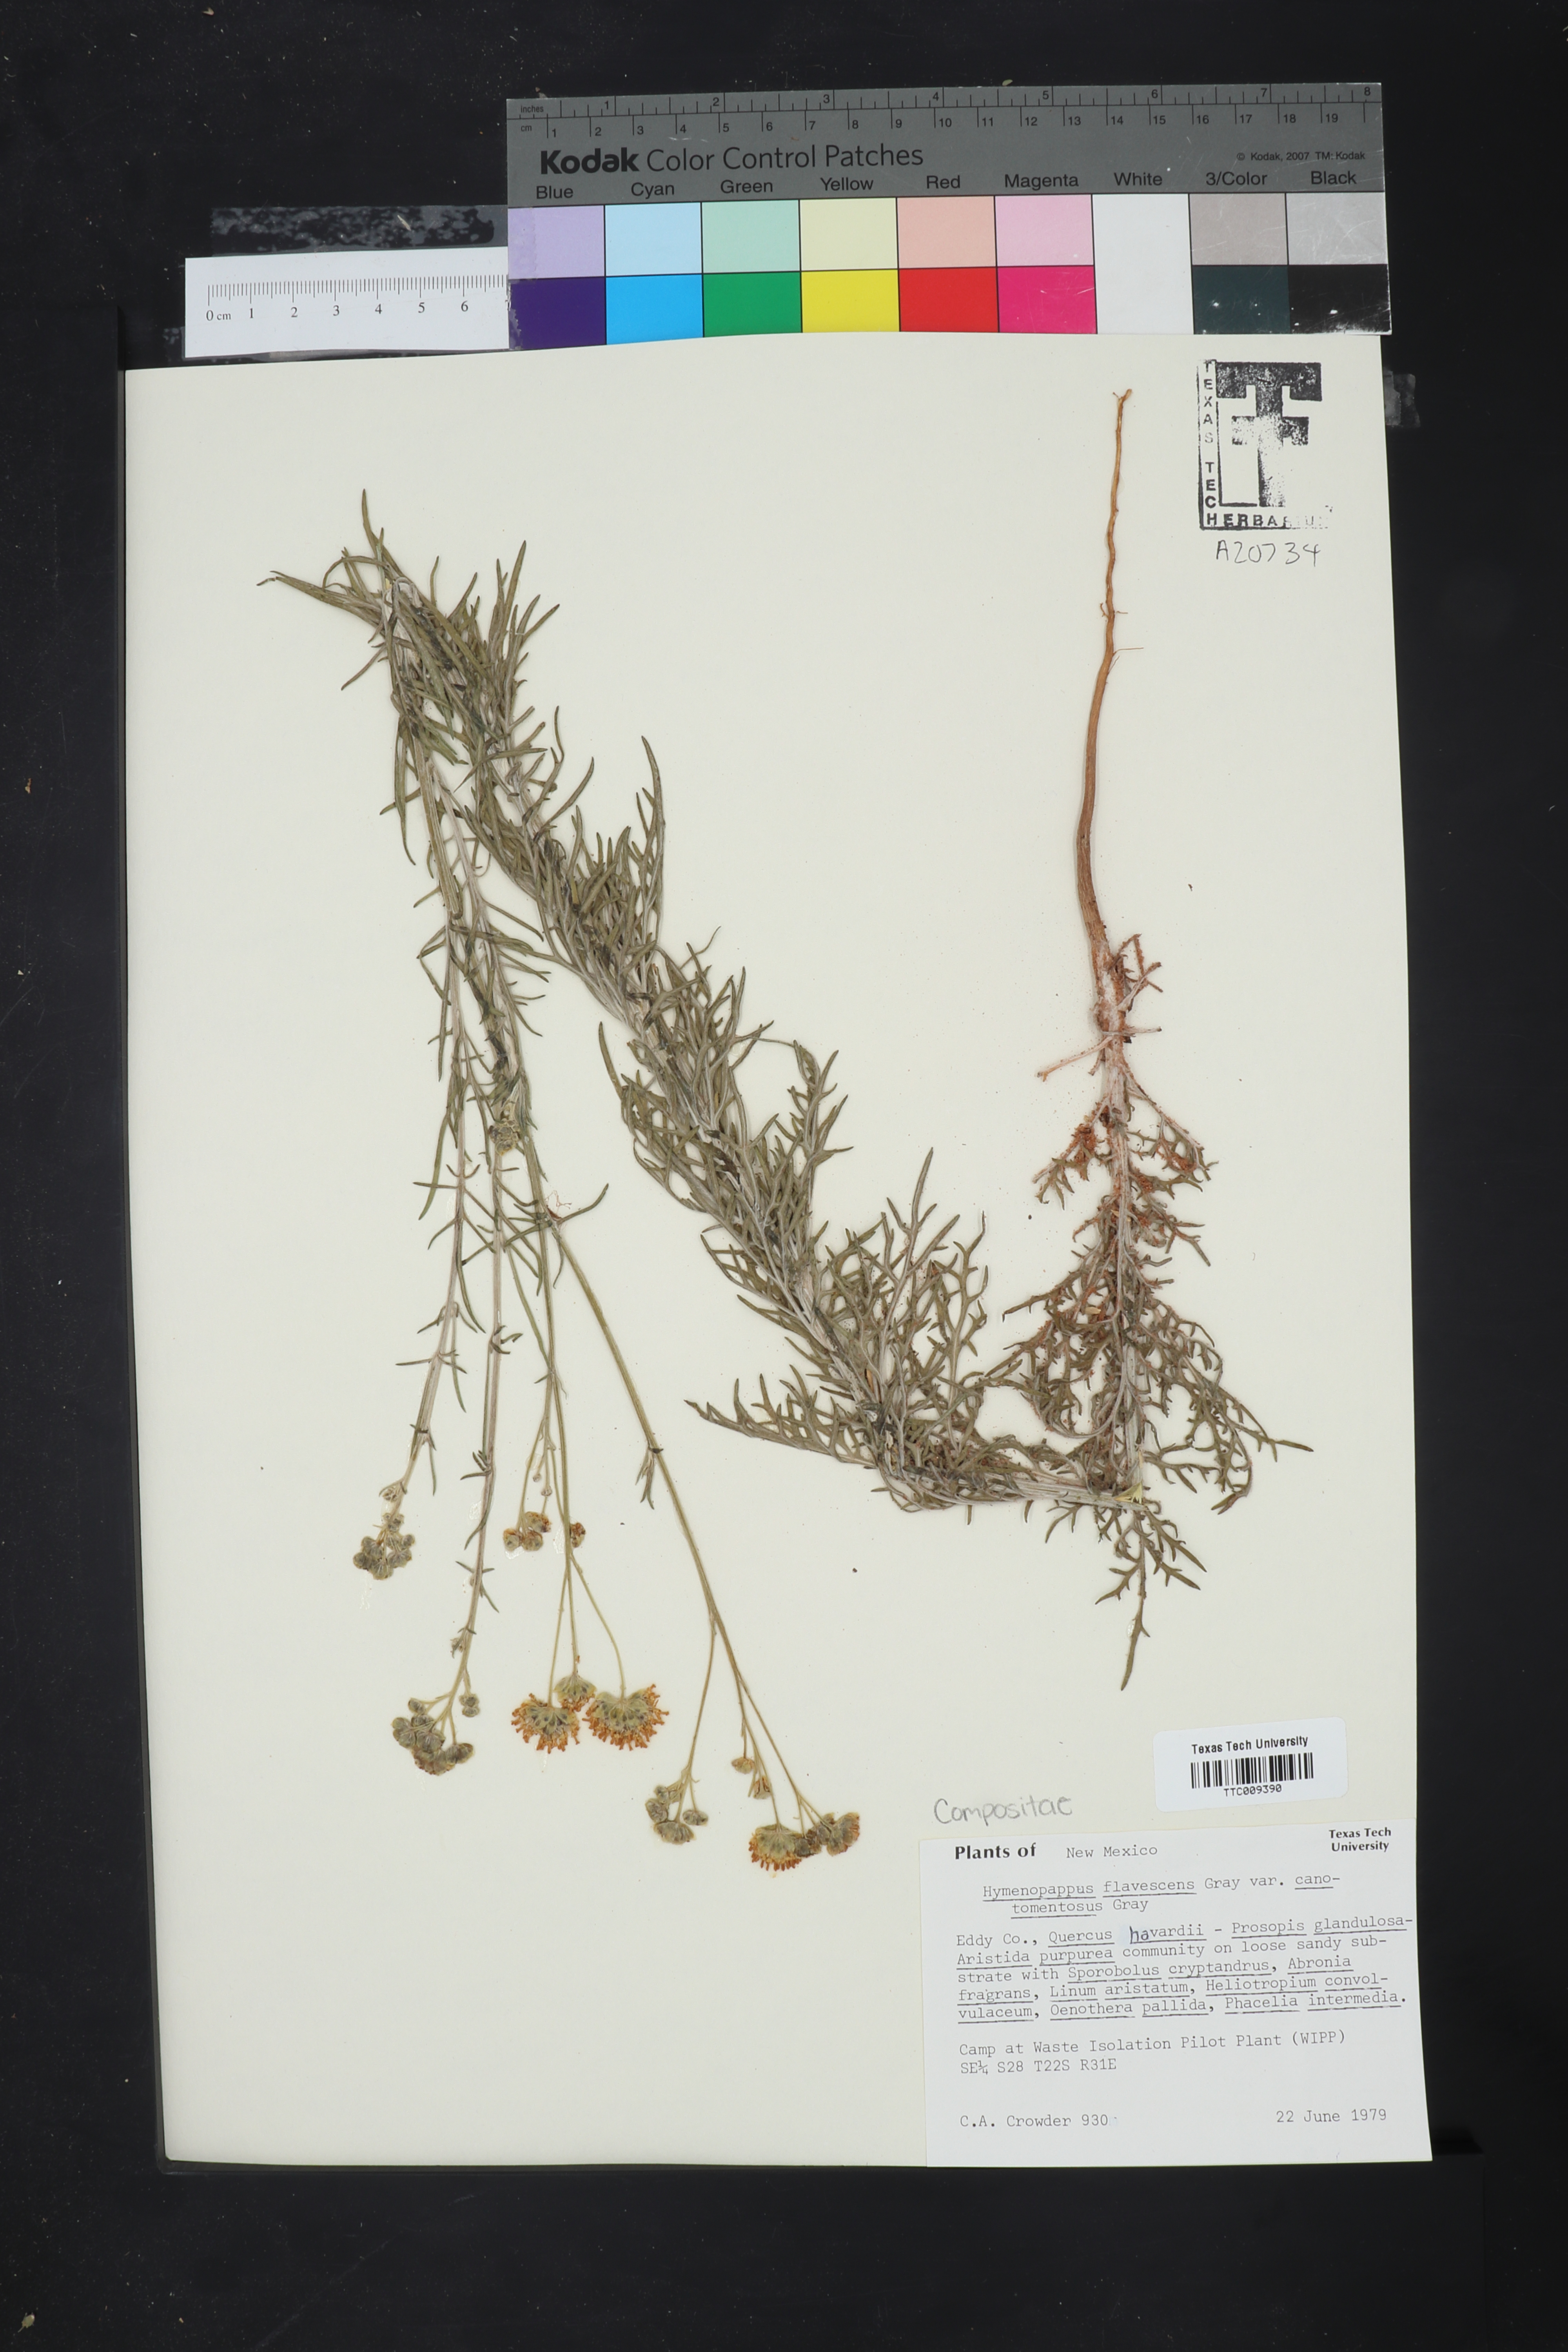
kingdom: Plantae
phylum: Tracheophyta
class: Magnoliopsida
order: Asterales
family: Asteraceae
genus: Hymenopappus
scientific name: Hymenopappus flavescens
